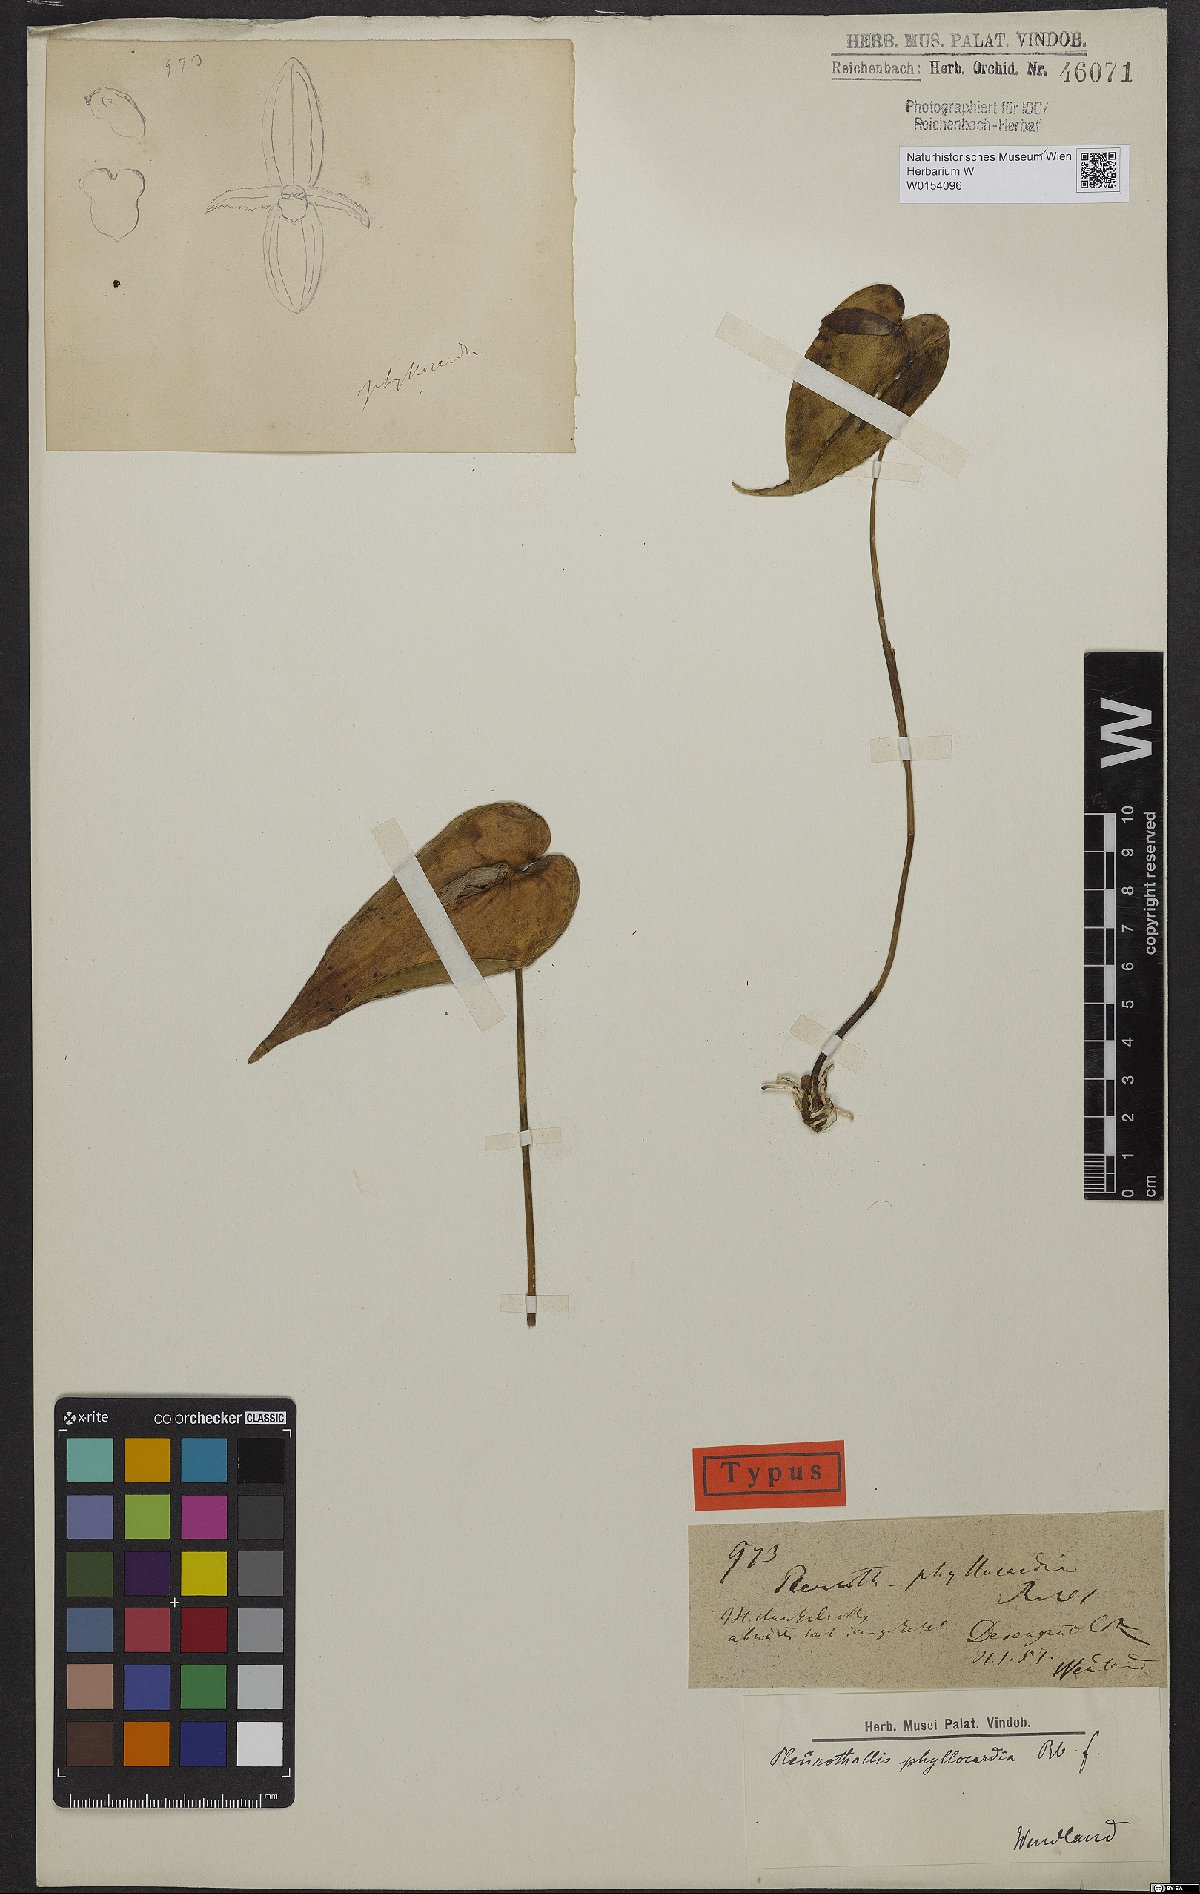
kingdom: Plantae
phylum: Tracheophyta
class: Liliopsida
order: Asparagales
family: Orchidaceae
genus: Pleurothallis
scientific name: Pleurothallis phyllocardia
